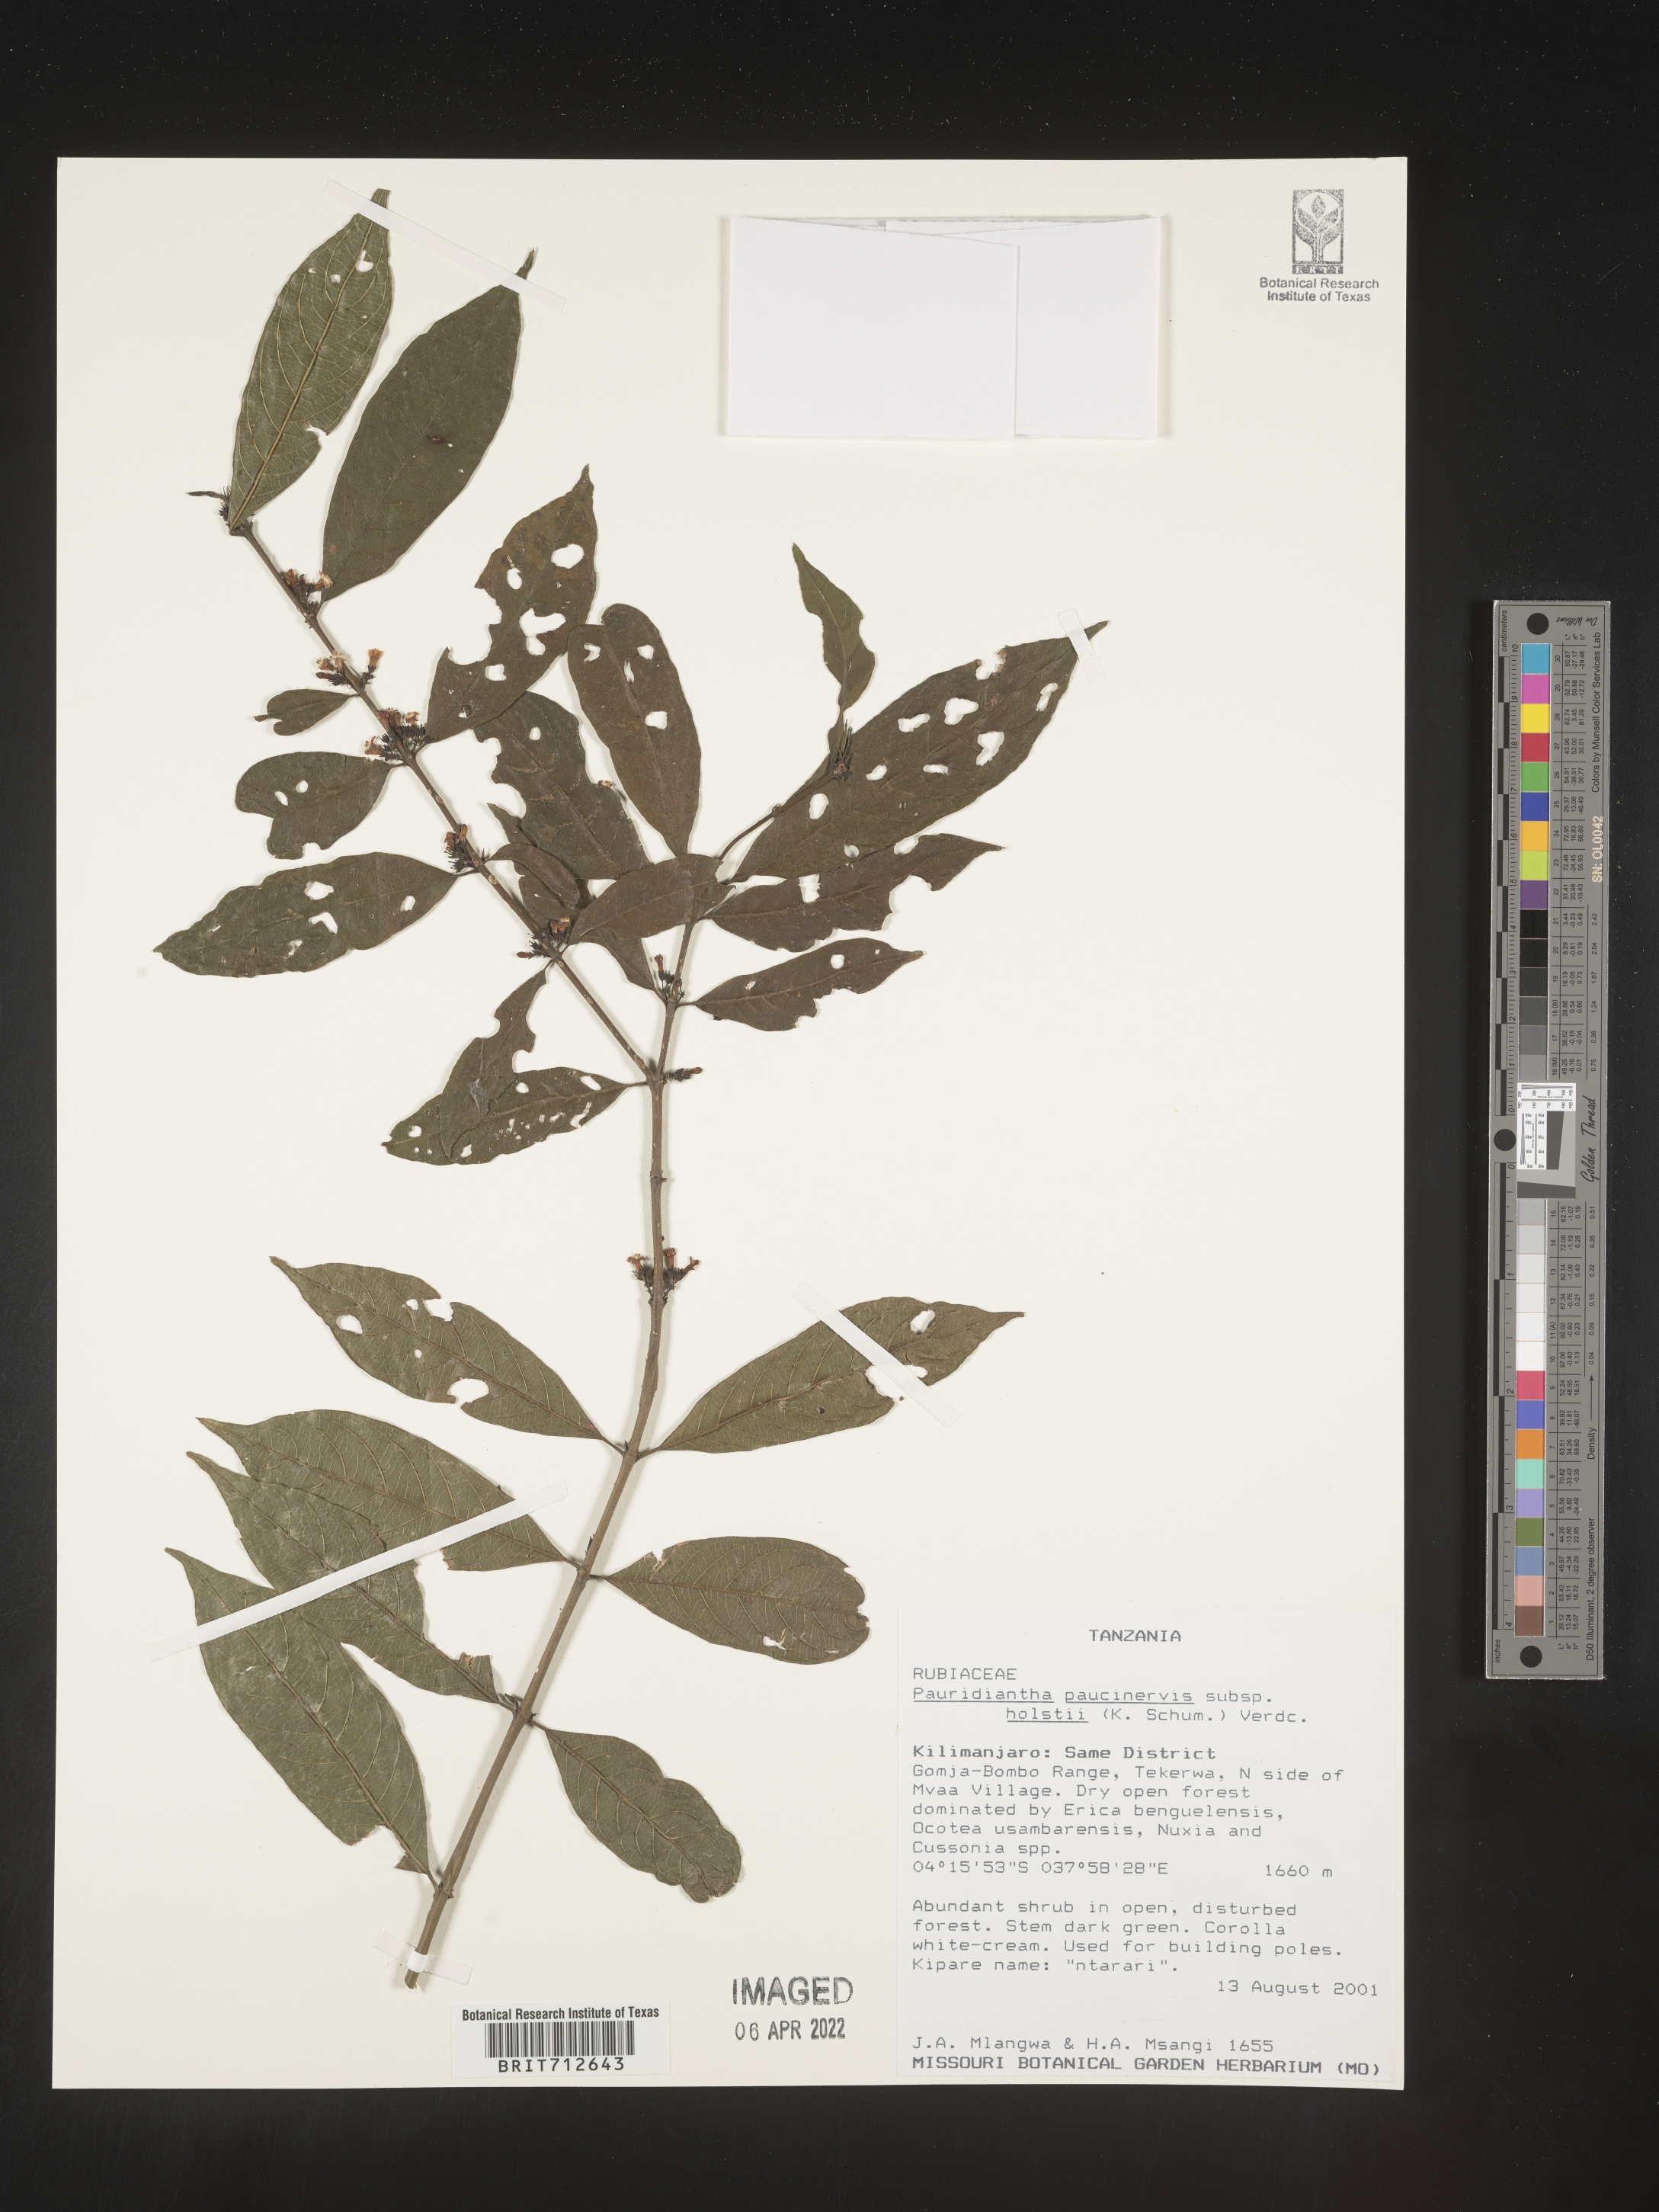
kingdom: Plantae
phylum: Tracheophyta
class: Magnoliopsida
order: Gentianales
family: Rubiaceae
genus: Pauridiantha
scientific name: Pauridiantha
